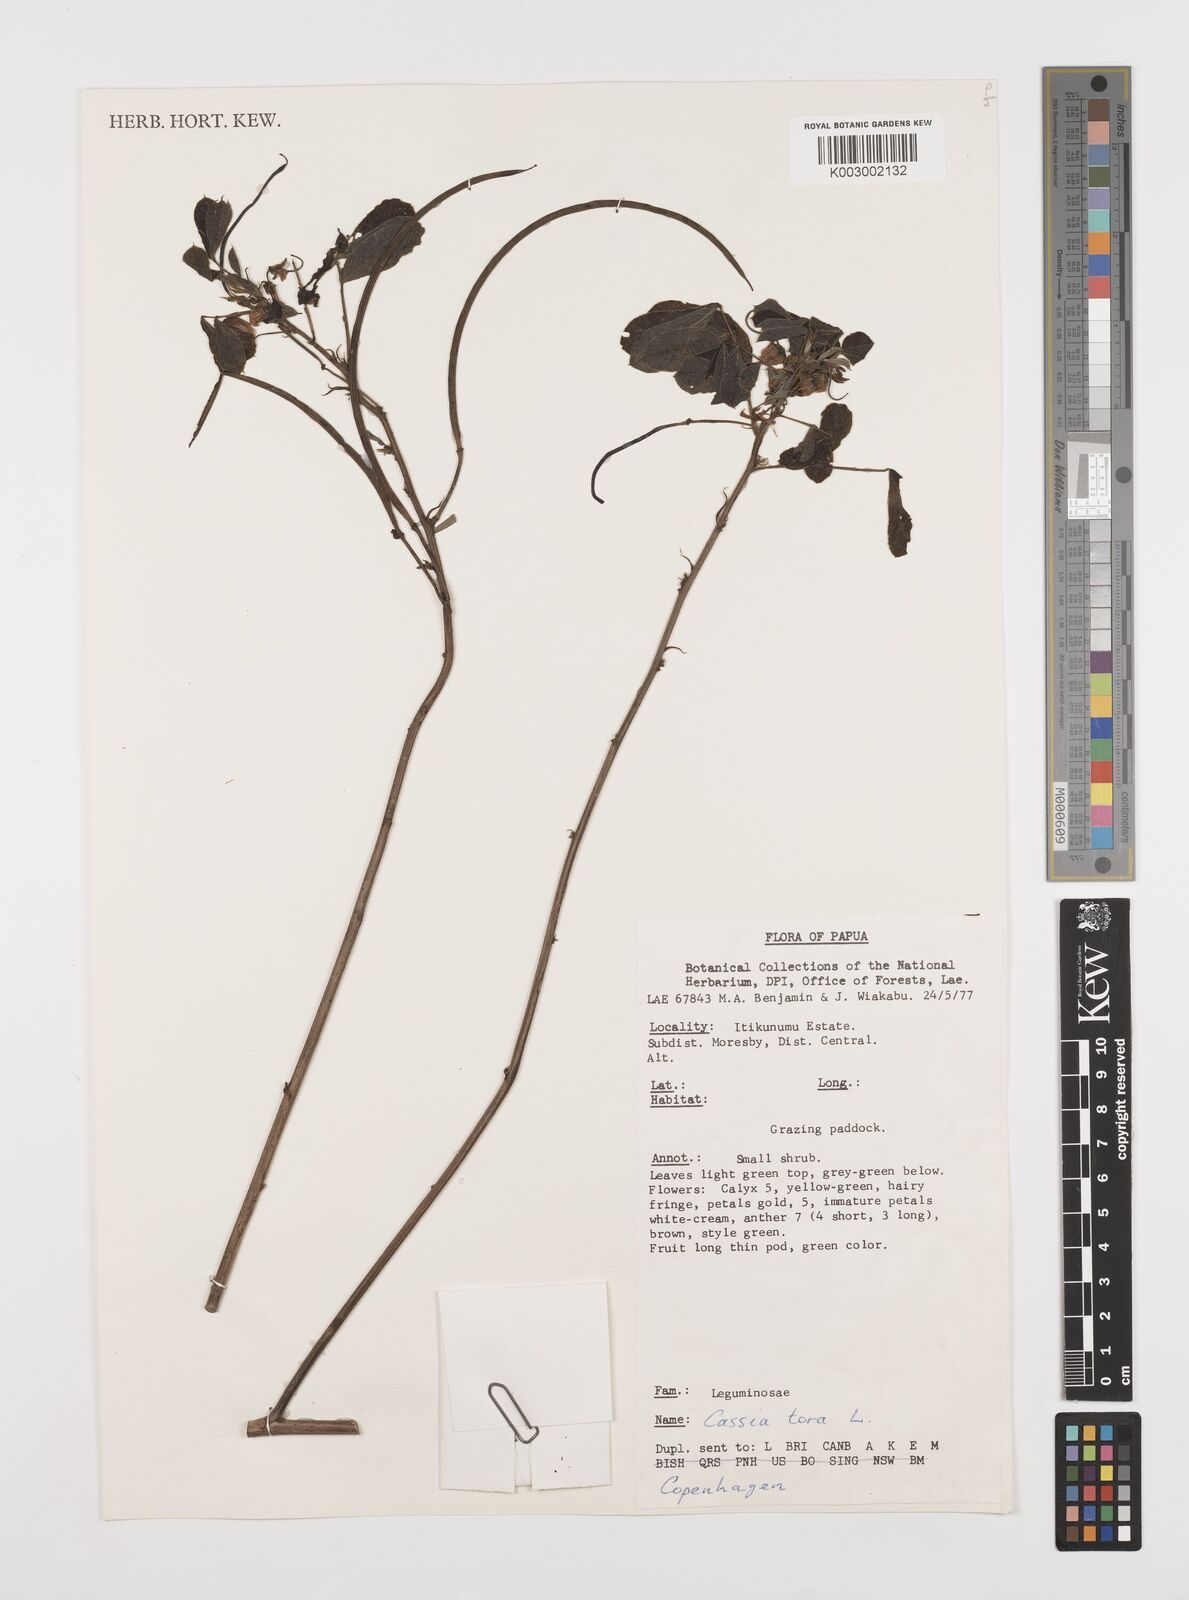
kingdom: Plantae
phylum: Tracheophyta
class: Magnoliopsida
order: Fabales
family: Fabaceae
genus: Senna
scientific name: Senna tora
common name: Sickle senna
